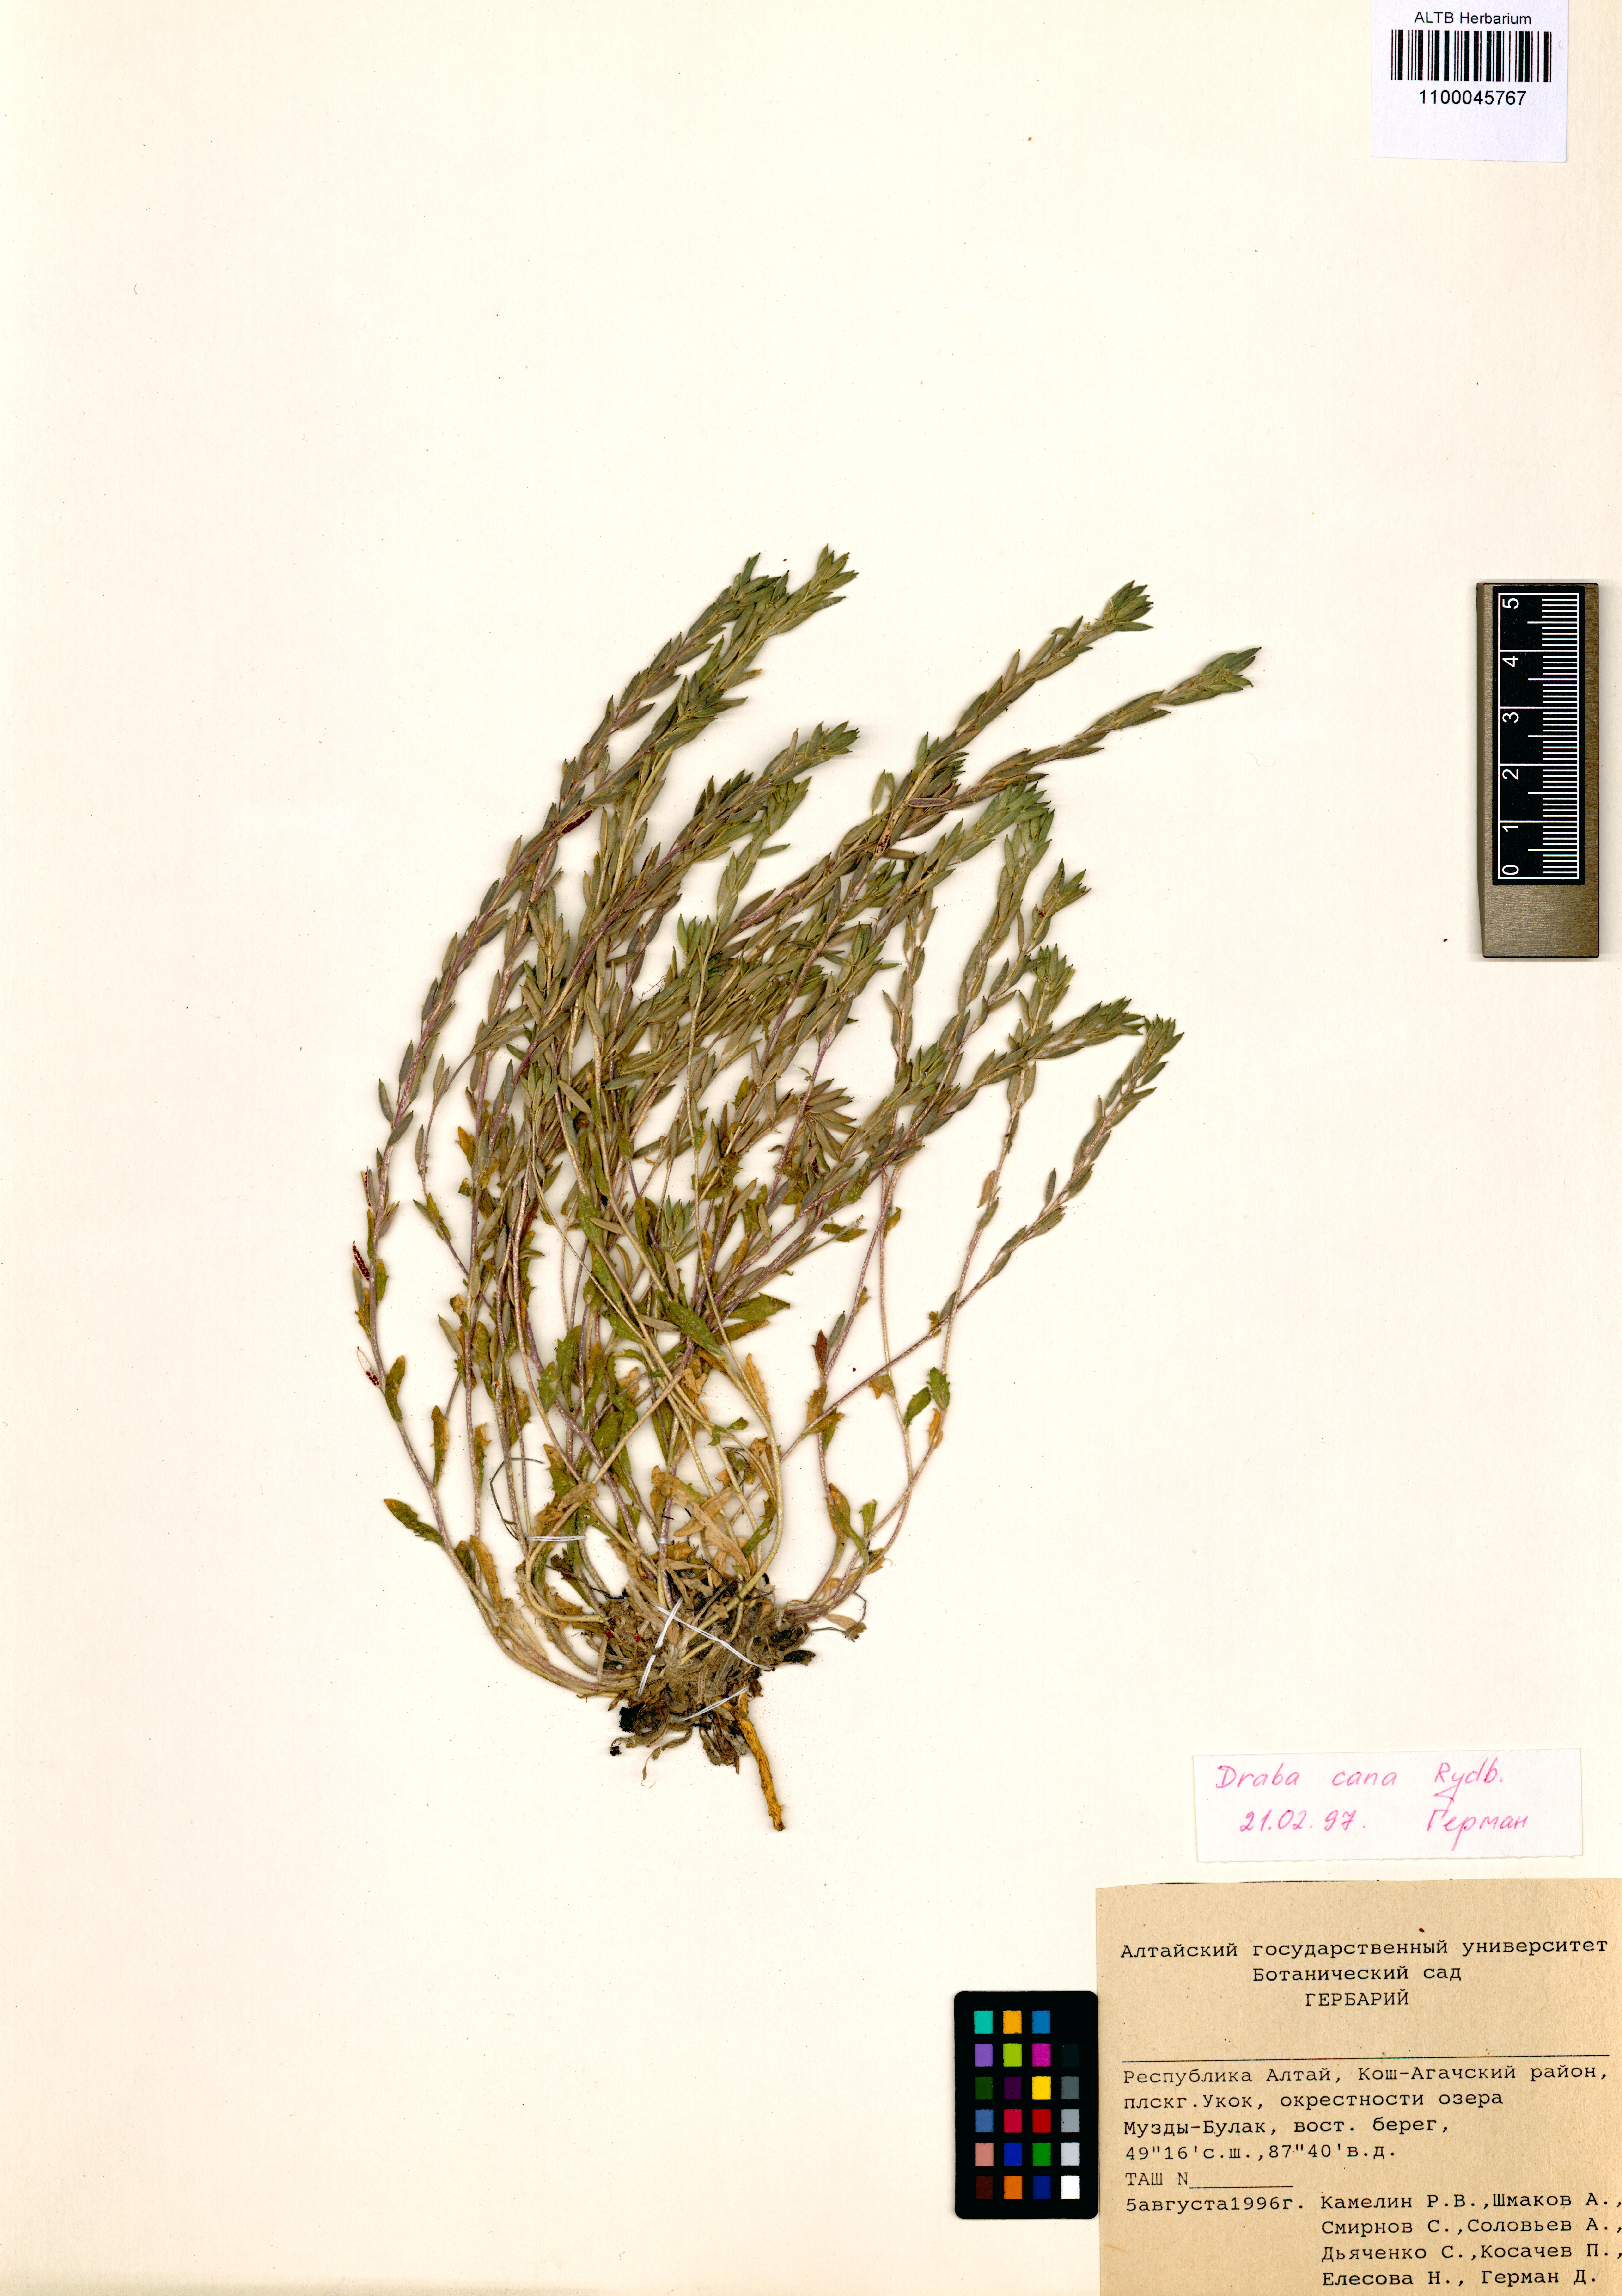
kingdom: Plantae
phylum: Tracheophyta
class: Magnoliopsida
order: Brassicales
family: Brassicaceae
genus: Draba
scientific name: Draba cana
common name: Hoary draba
